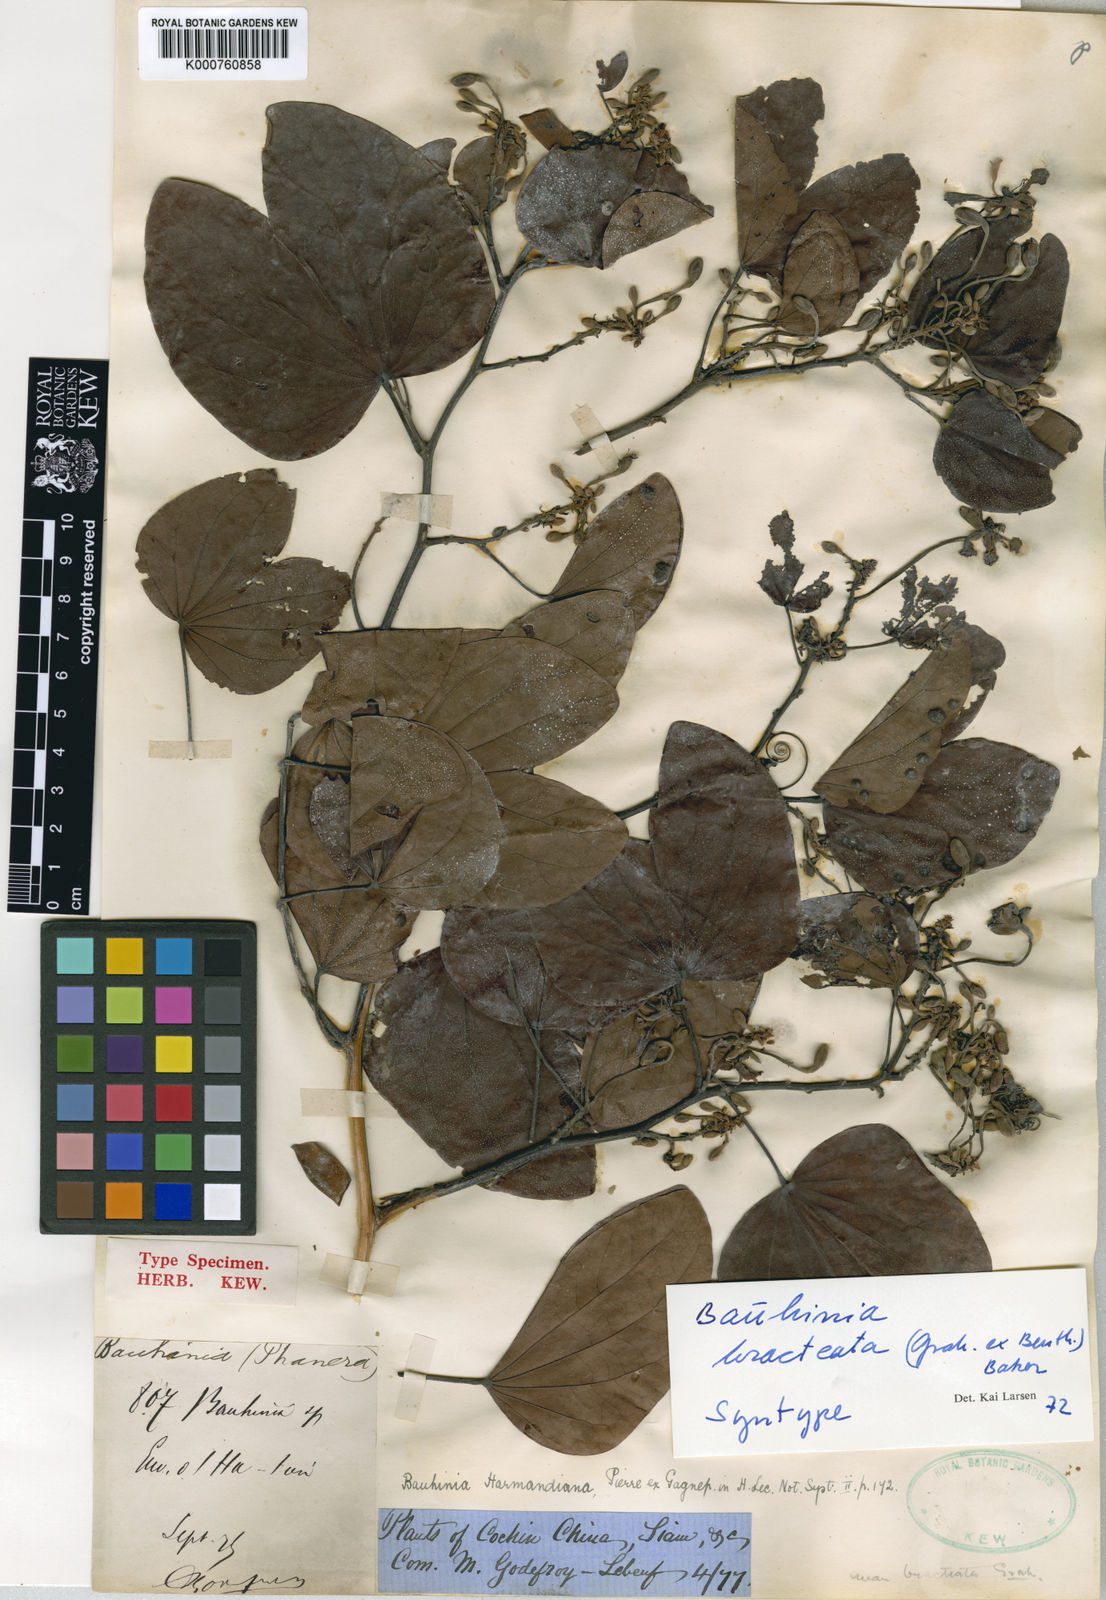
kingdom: Plantae
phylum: Tracheophyta
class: Magnoliopsida
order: Fabales
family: Fabaceae
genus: Phanera
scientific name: Phanera bracteata
